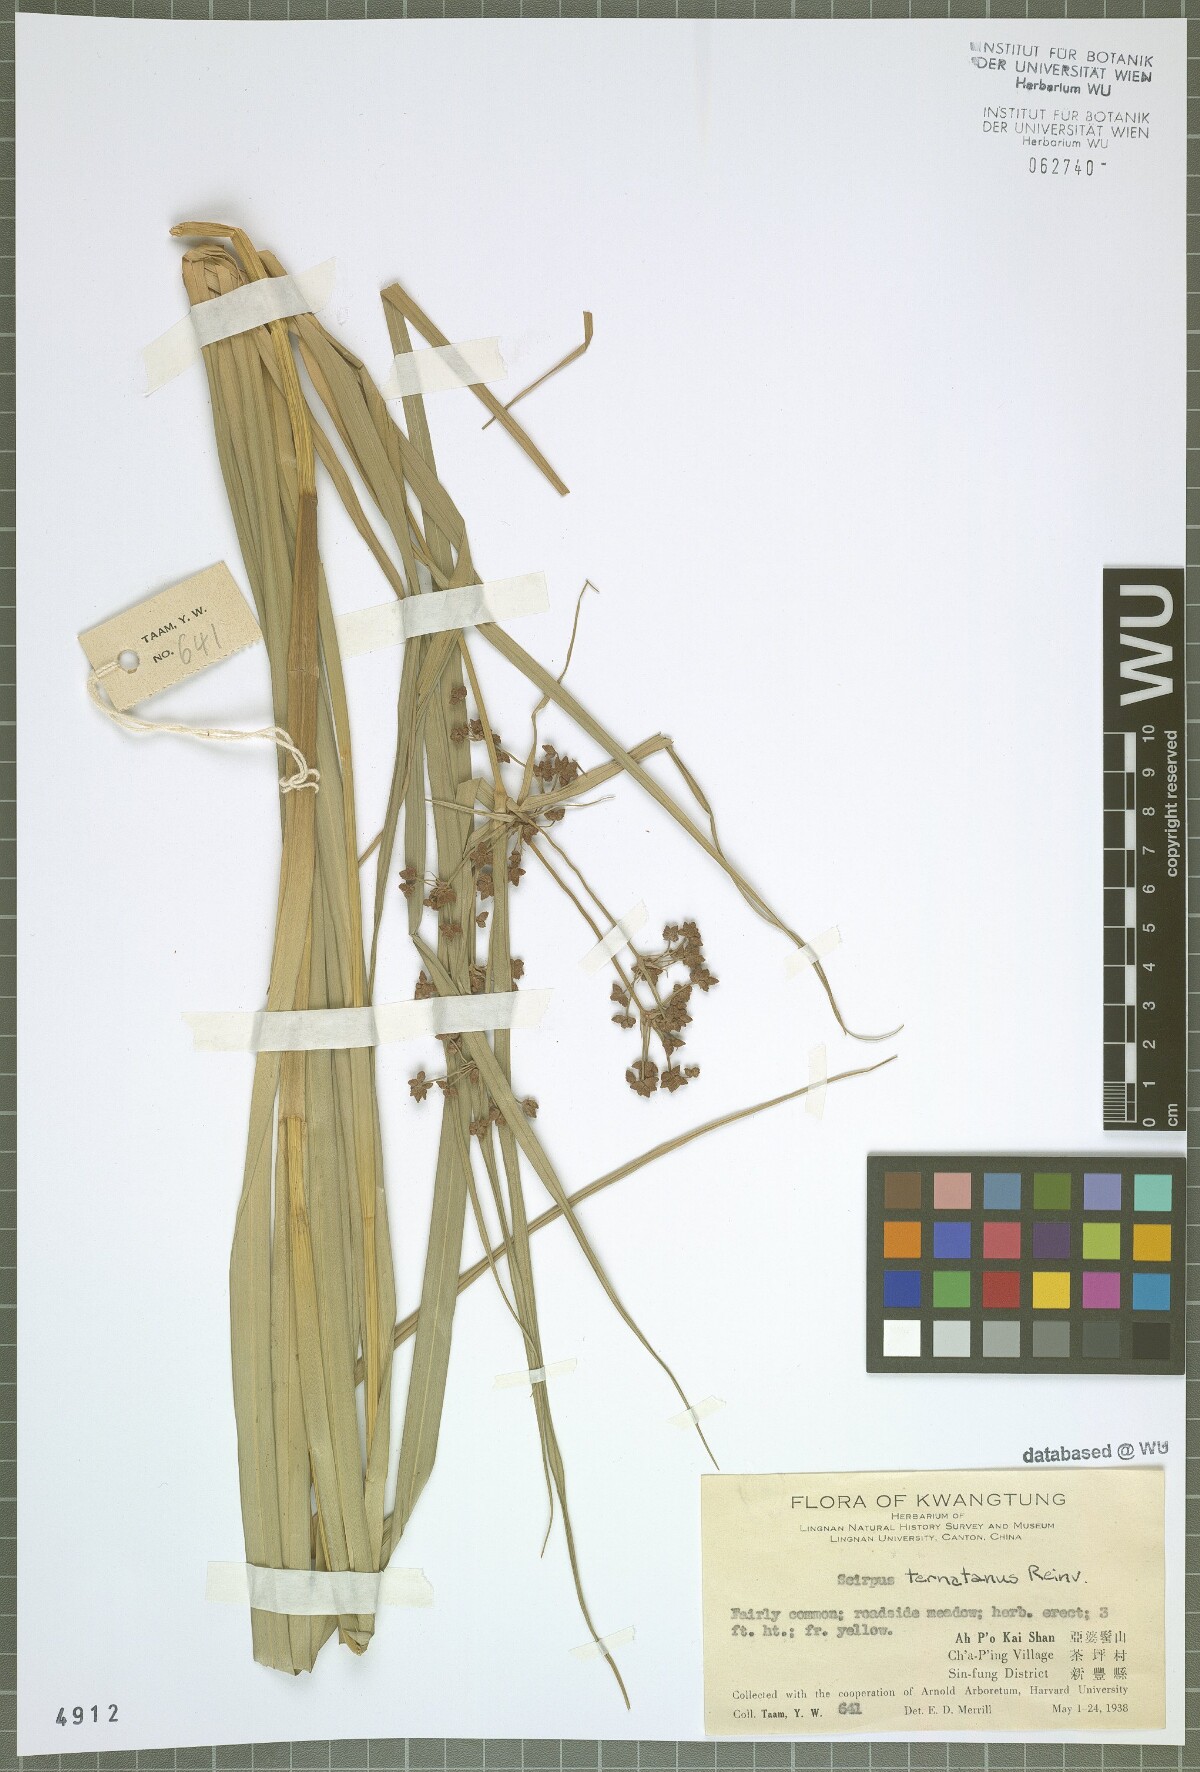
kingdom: Plantae
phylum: Tracheophyta
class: Liliopsida
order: Poales
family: Cyperaceae
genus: Scirpus
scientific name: Scirpus ternatanus
